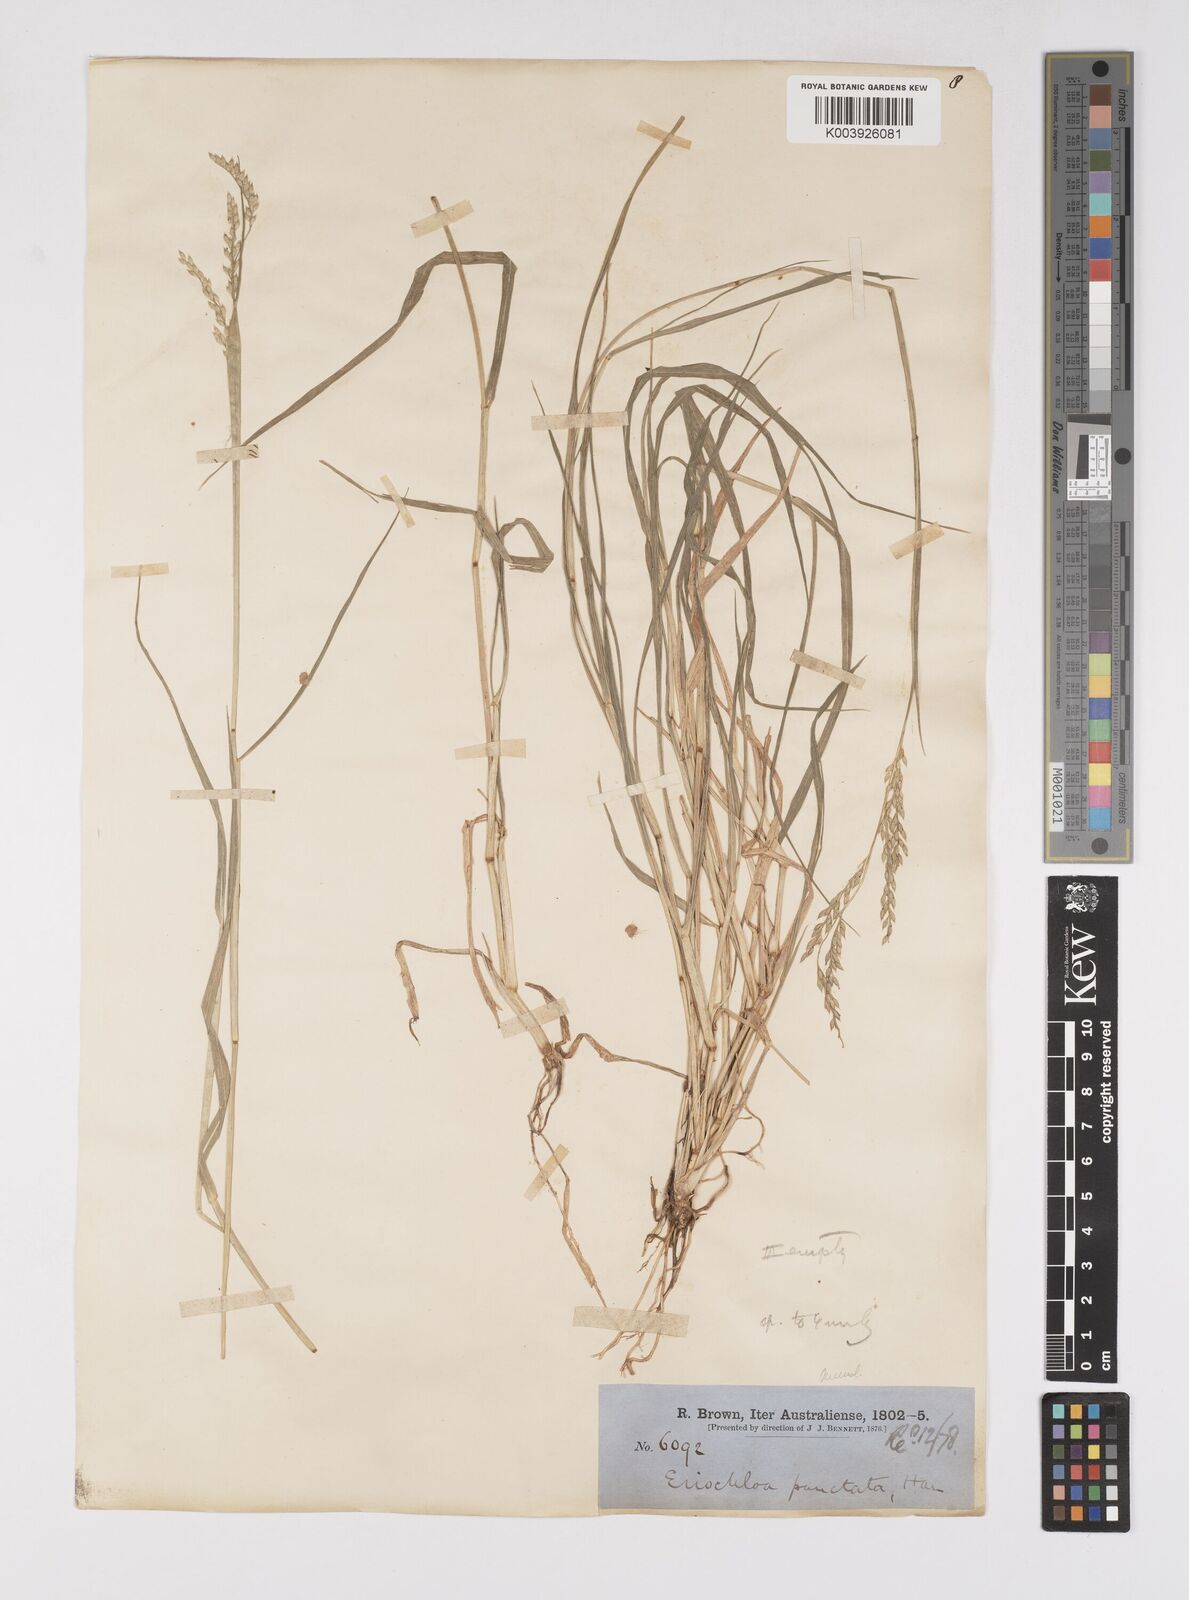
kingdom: Plantae
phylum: Tracheophyta
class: Liliopsida
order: Poales
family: Poaceae
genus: Eriochloa
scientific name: Eriochloa
